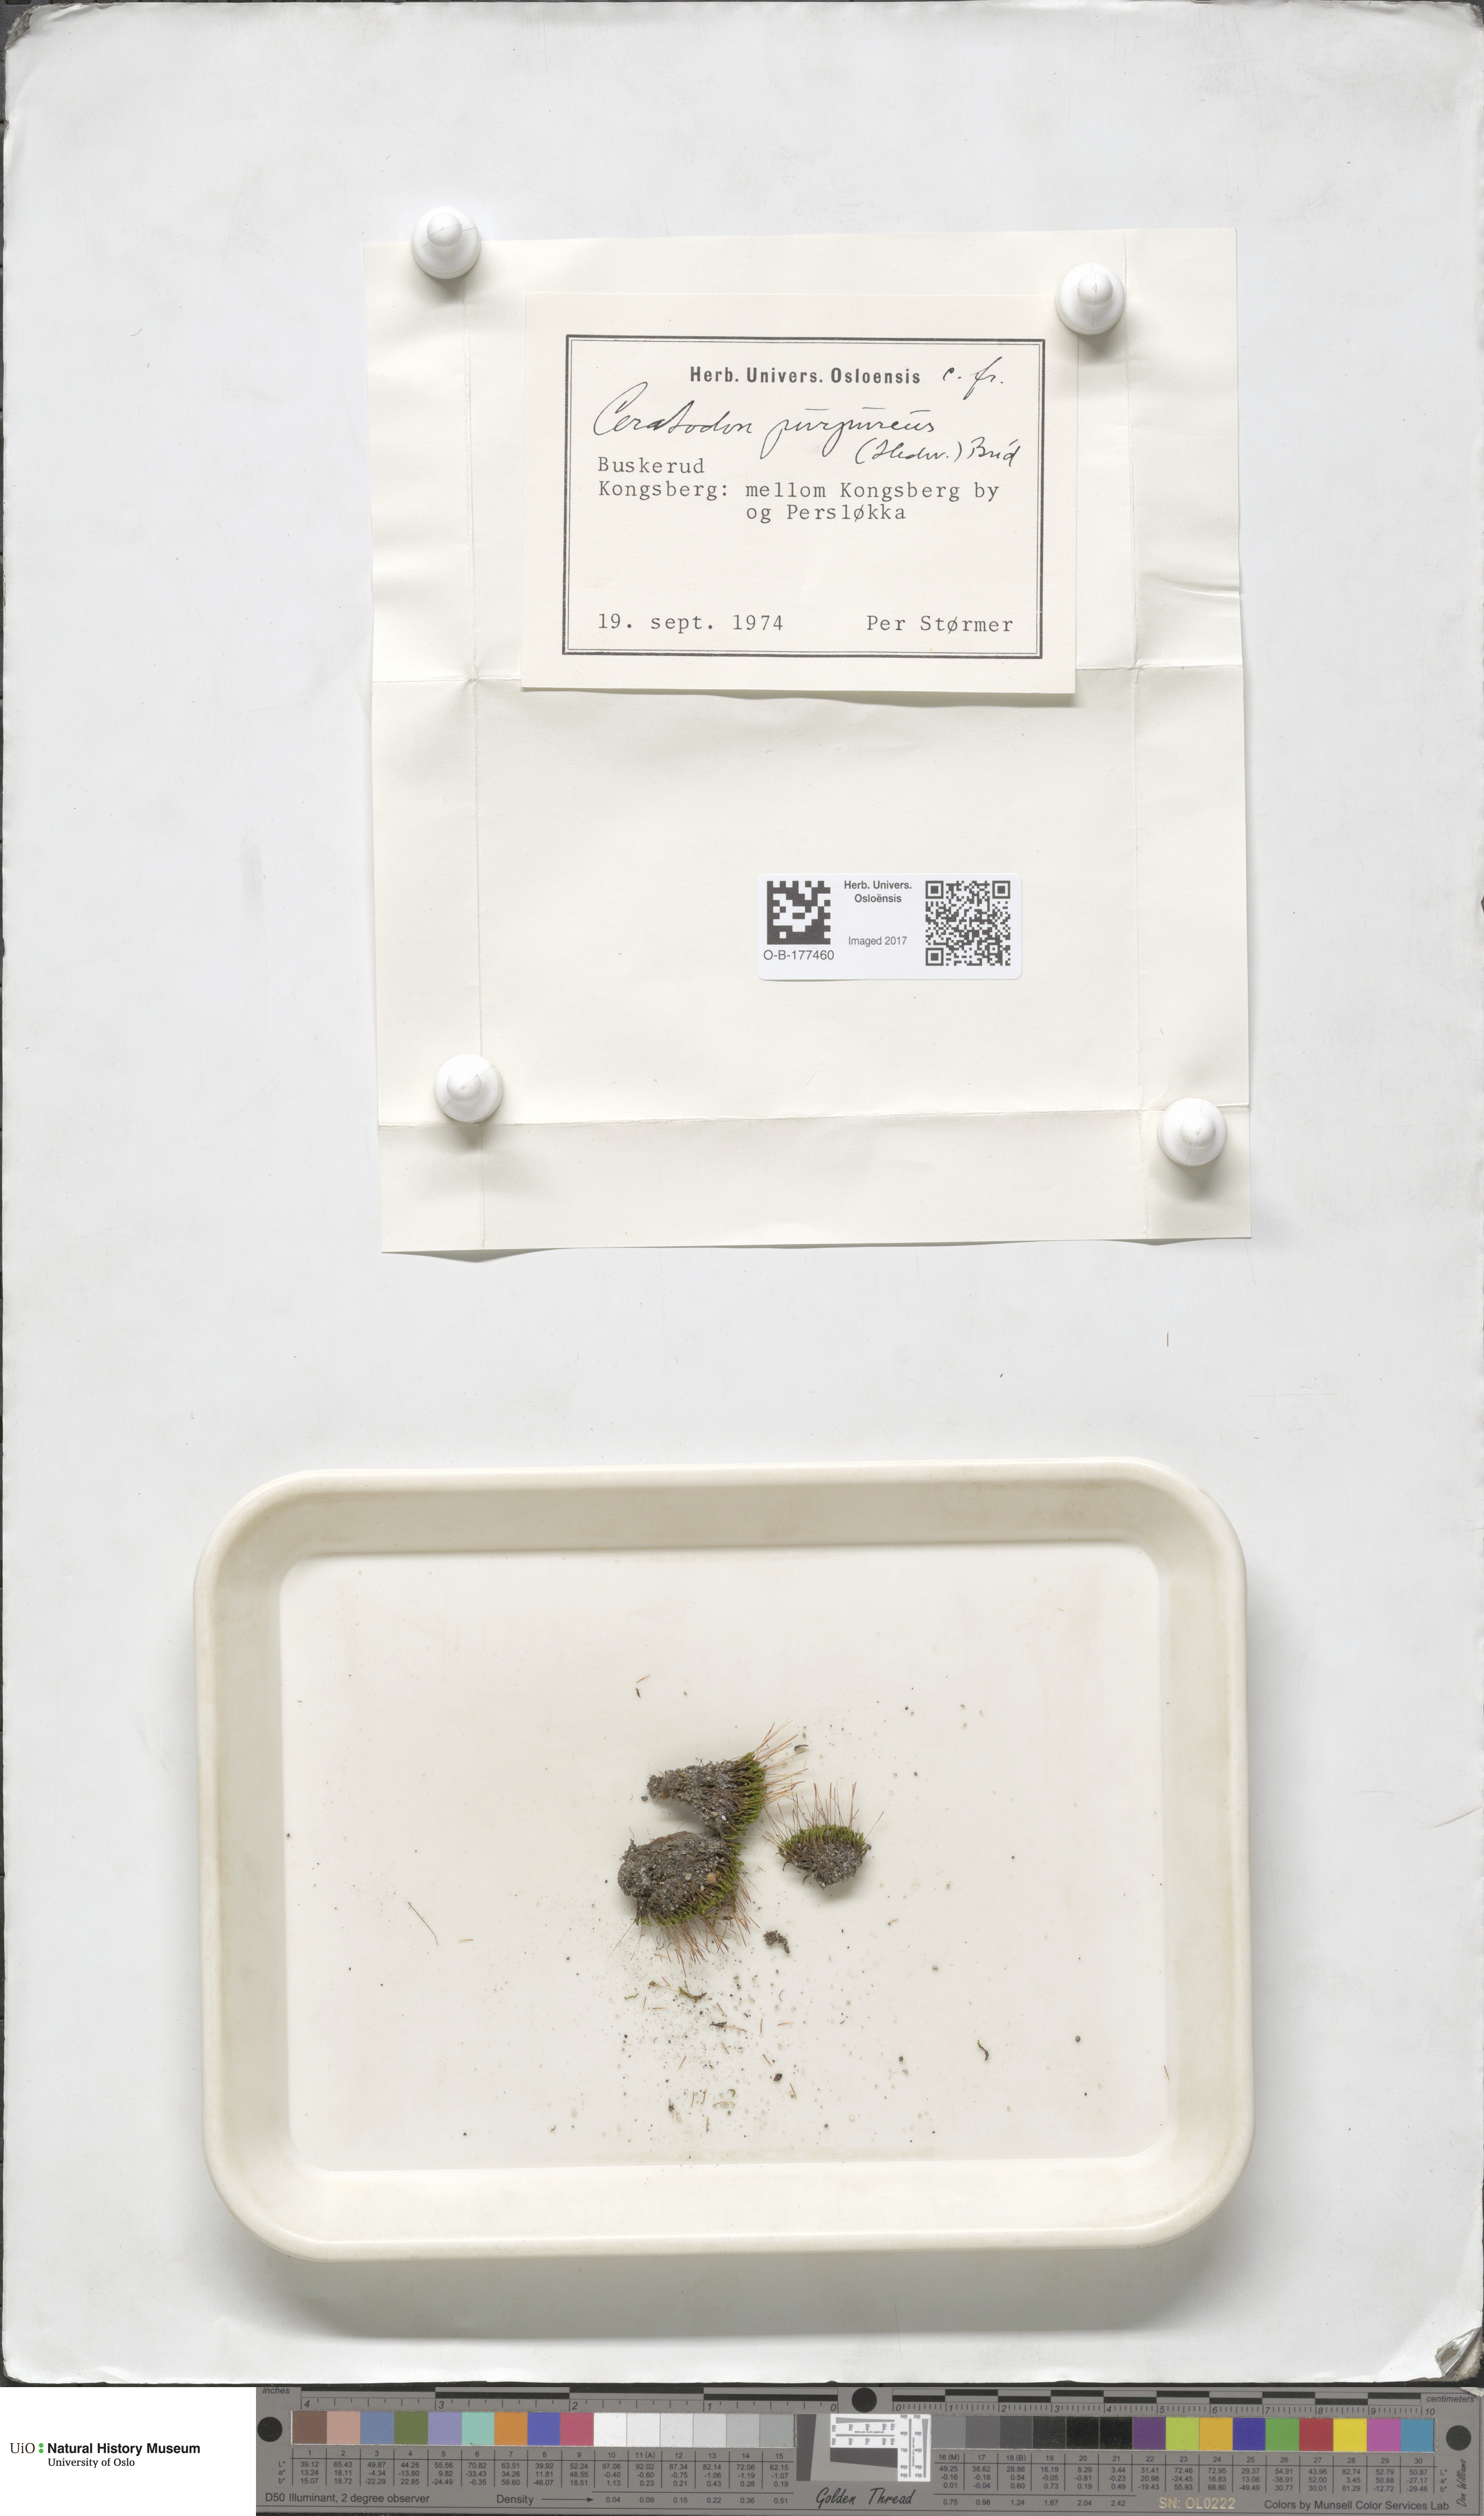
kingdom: Plantae
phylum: Bryophyta
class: Bryopsida
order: Dicranales
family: Ditrichaceae
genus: Ceratodon
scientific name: Ceratodon purpureus
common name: Redshank
